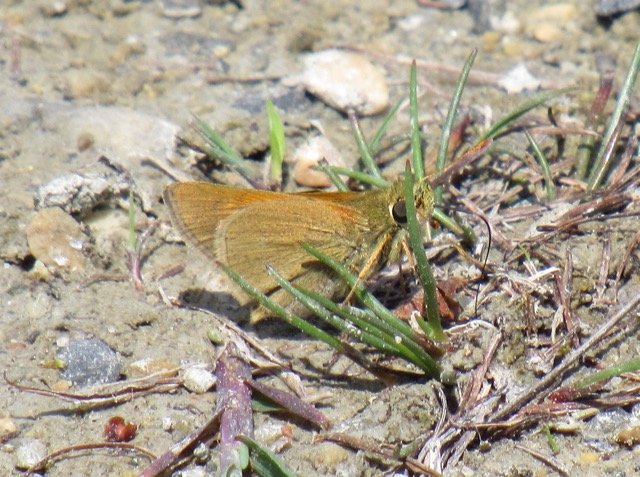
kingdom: Animalia
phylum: Arthropoda
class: Insecta
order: Lepidoptera
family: Hesperiidae
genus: Polites
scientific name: Polites themistocles
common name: Tawny-edged Skipper
